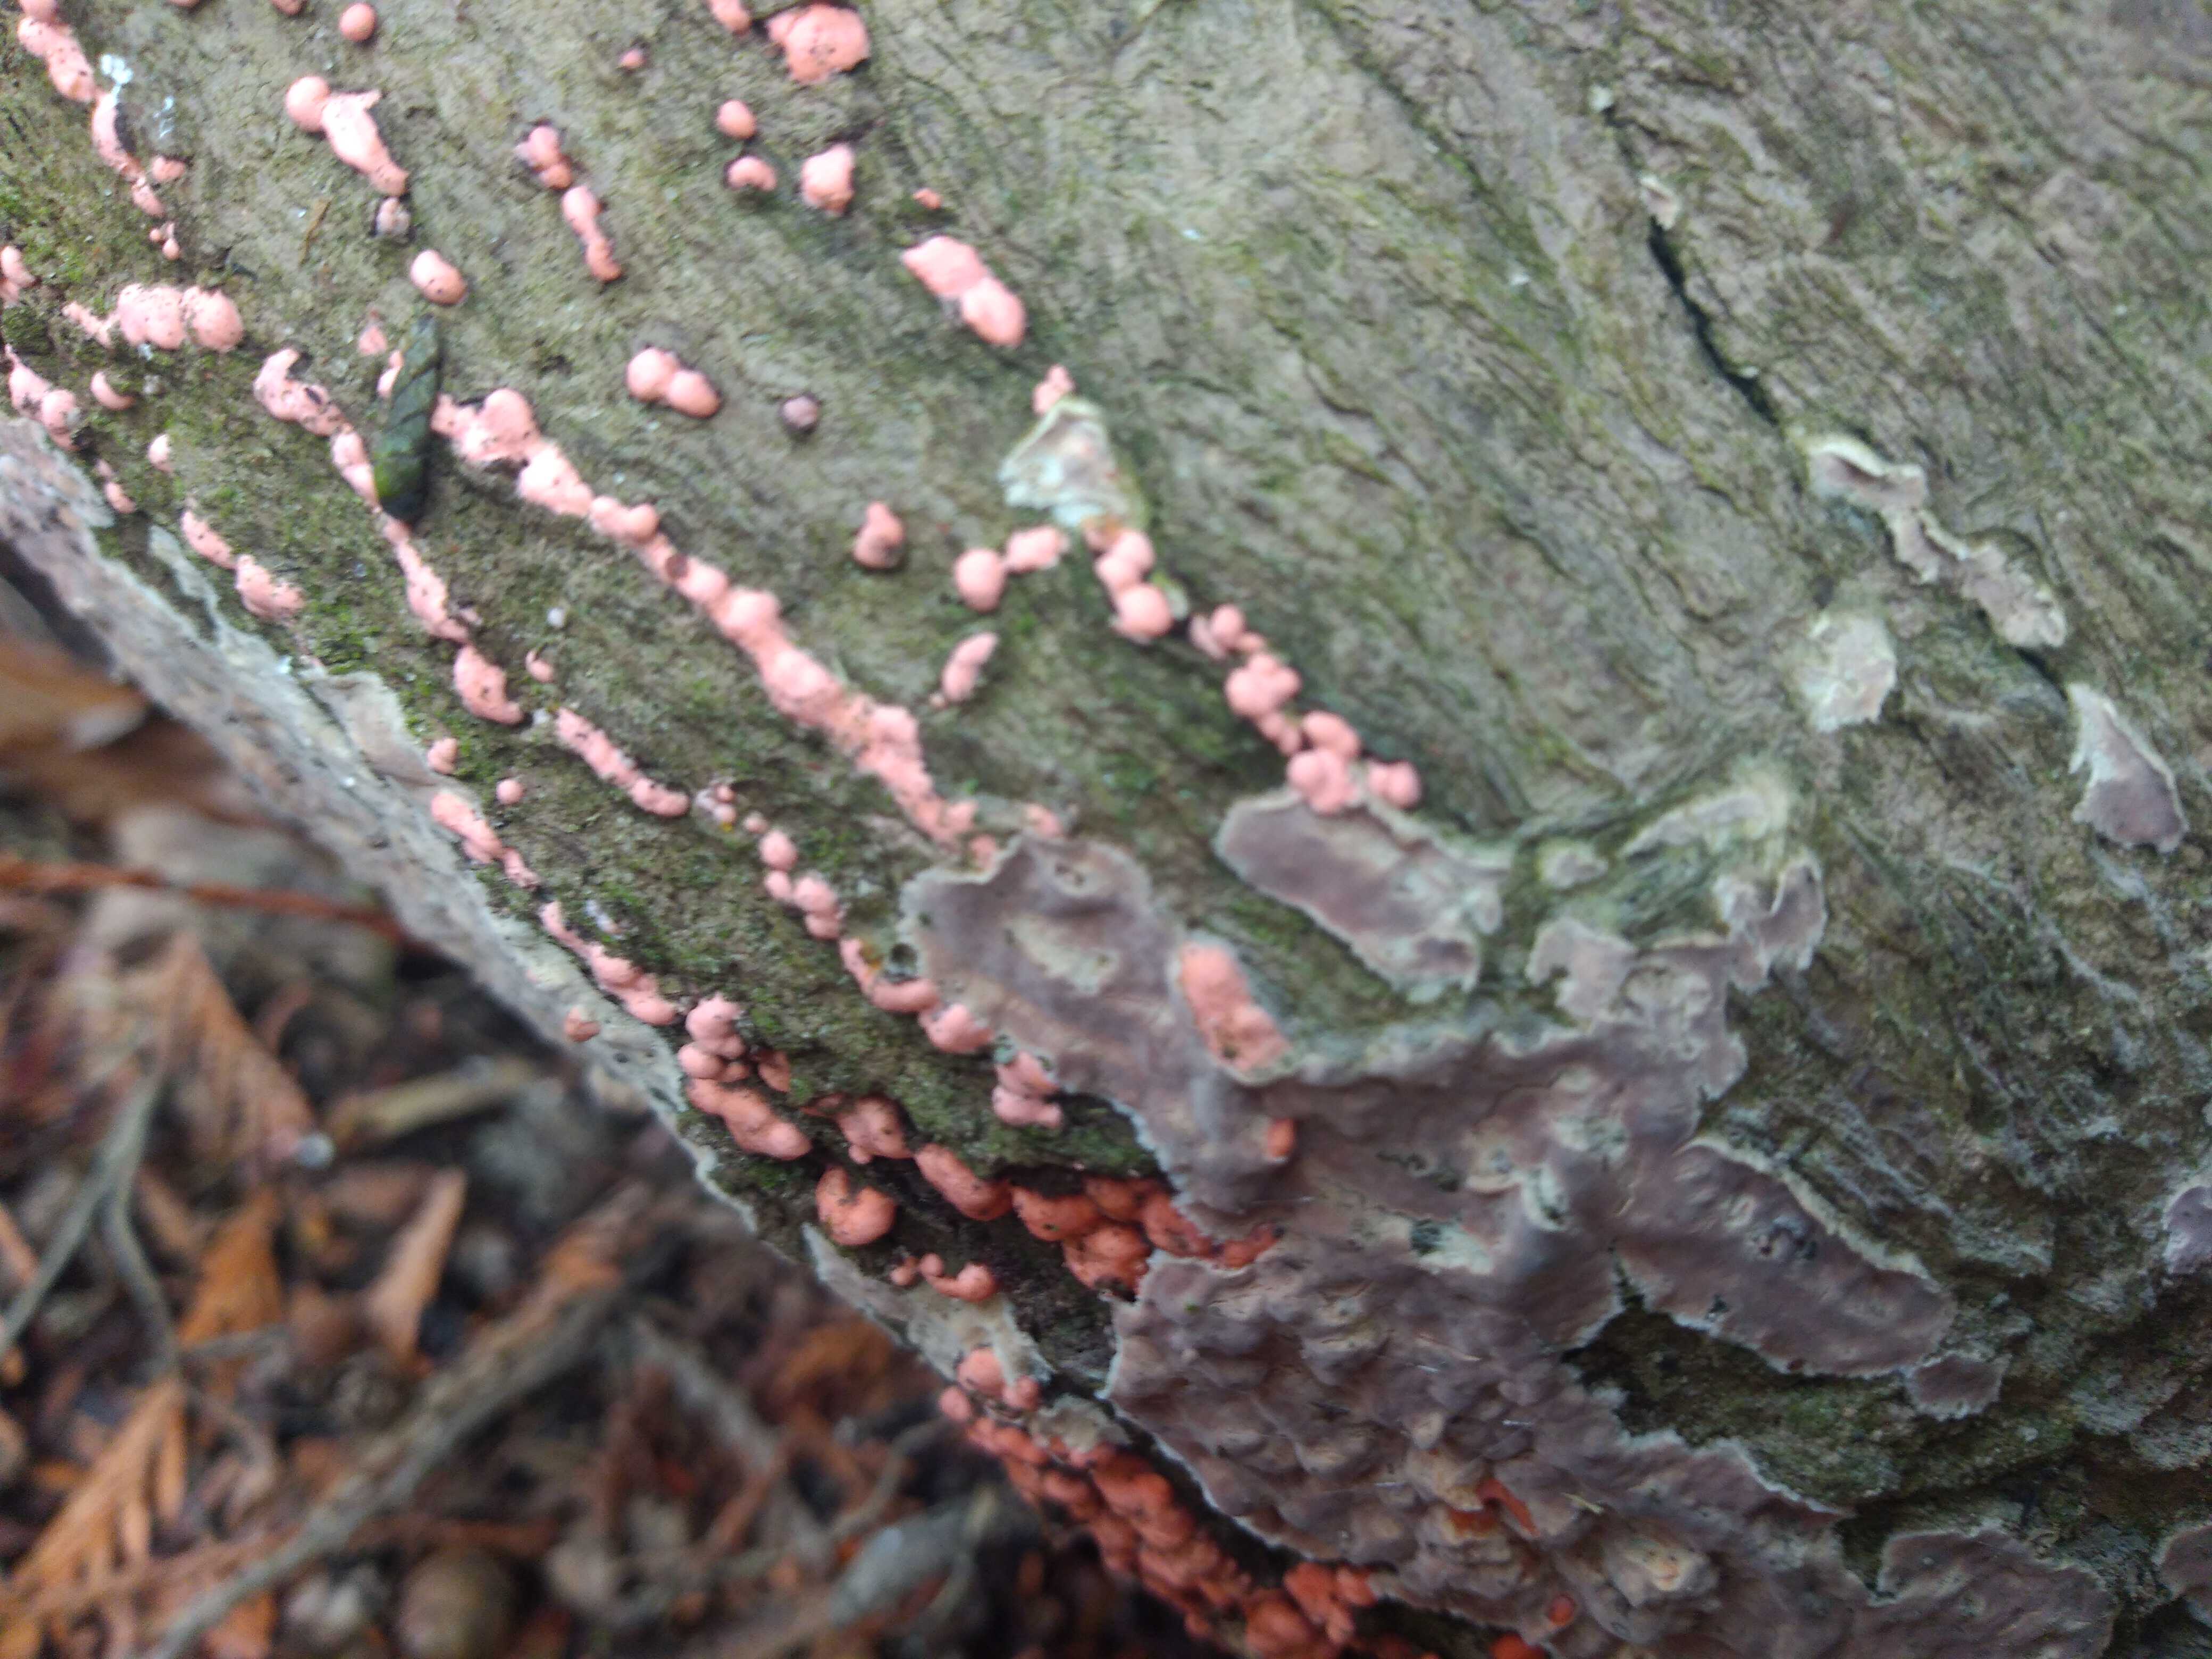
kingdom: Fungi
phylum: Ascomycota
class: Sordariomycetes
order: Hypocreales
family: Nectriaceae
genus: Nectria
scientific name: Nectria cinnabarina
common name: almindelig cinnobersvamp
